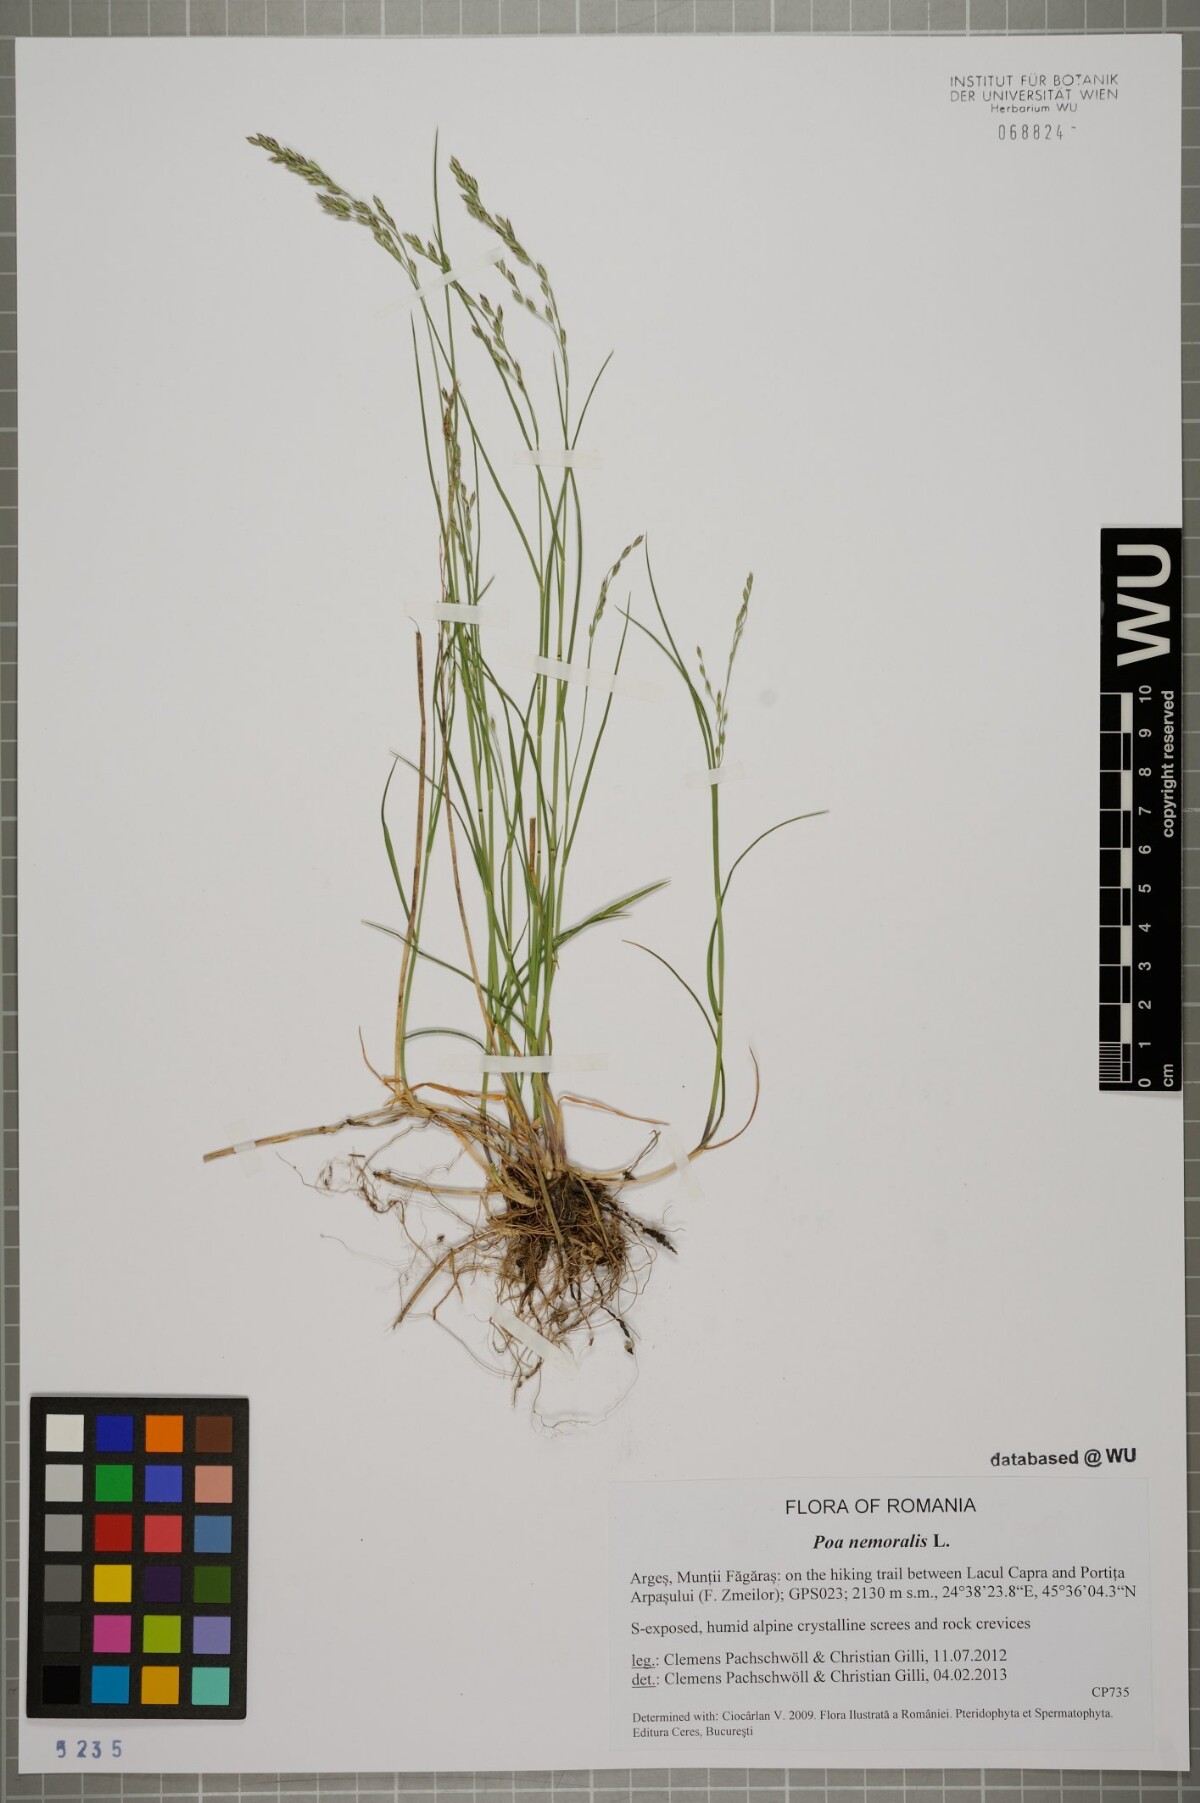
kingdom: Plantae
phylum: Tracheophyta
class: Liliopsida
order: Poales
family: Poaceae
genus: Poa
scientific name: Poa nemoralis
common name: Wood bluegrass
